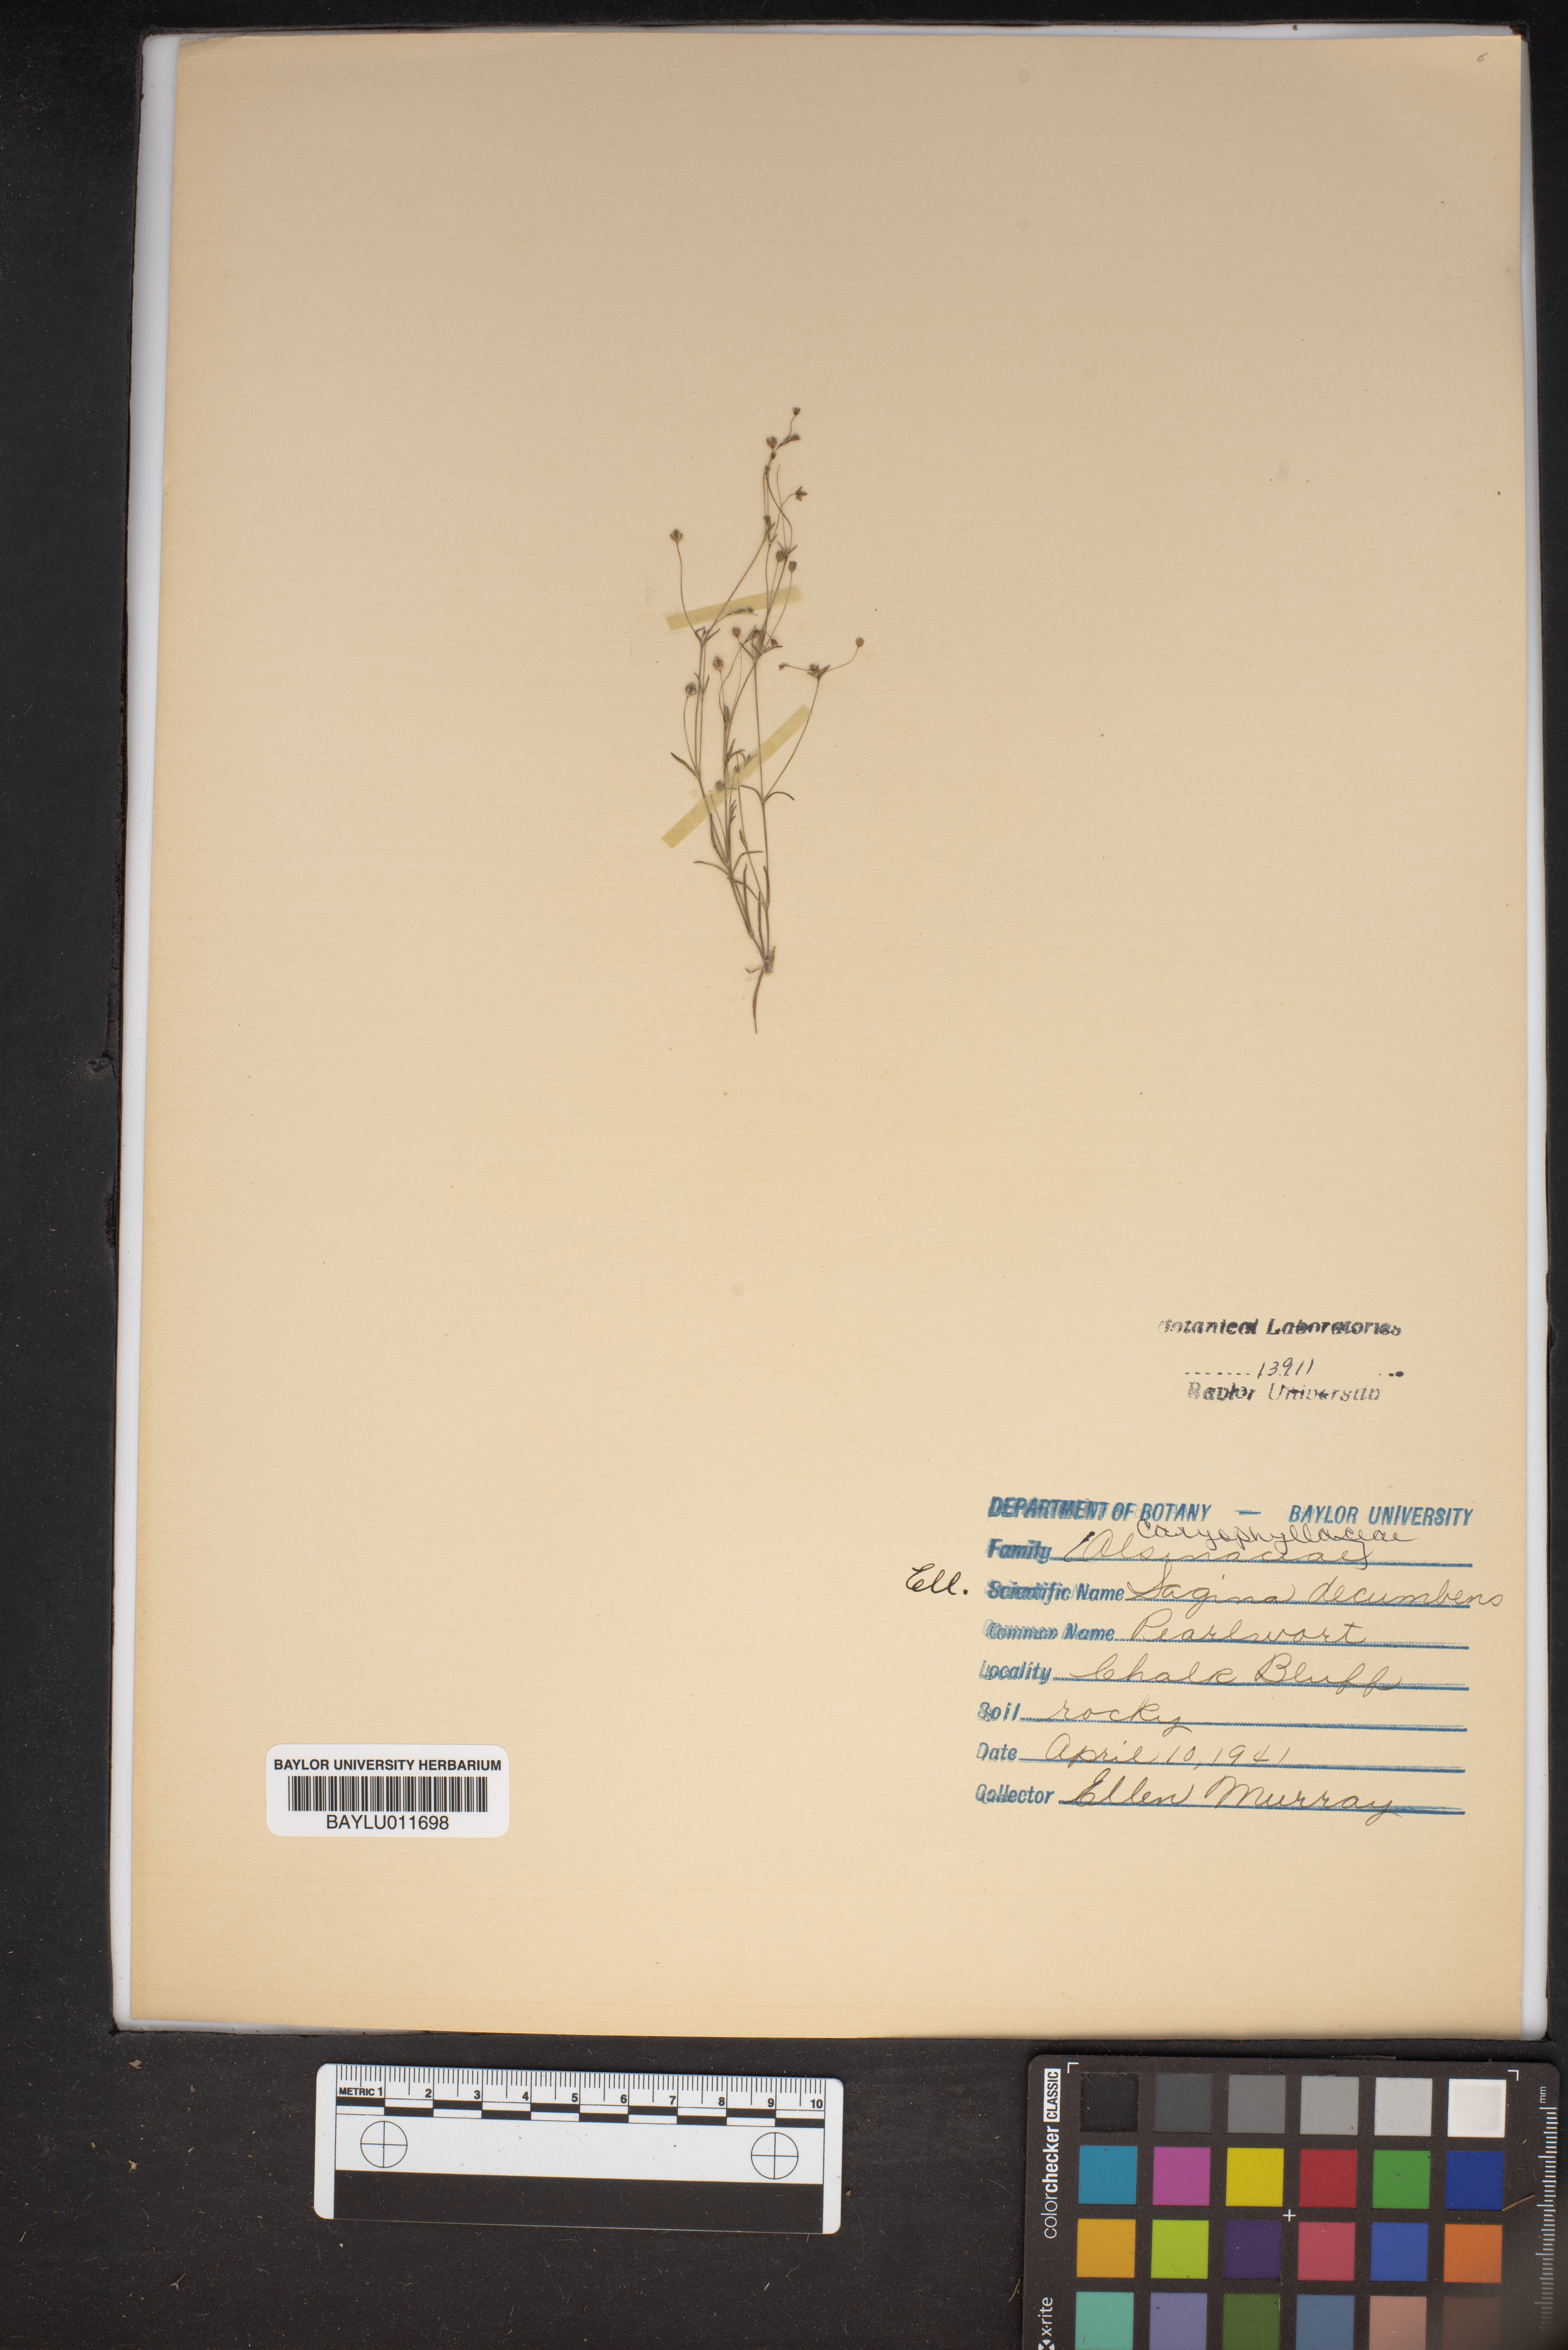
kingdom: Plantae
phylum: Tracheophyta
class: Magnoliopsida
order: Caryophyllales
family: Caryophyllaceae
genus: Sagina
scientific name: Sagina decumbens
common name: Decumbent pearlwort
